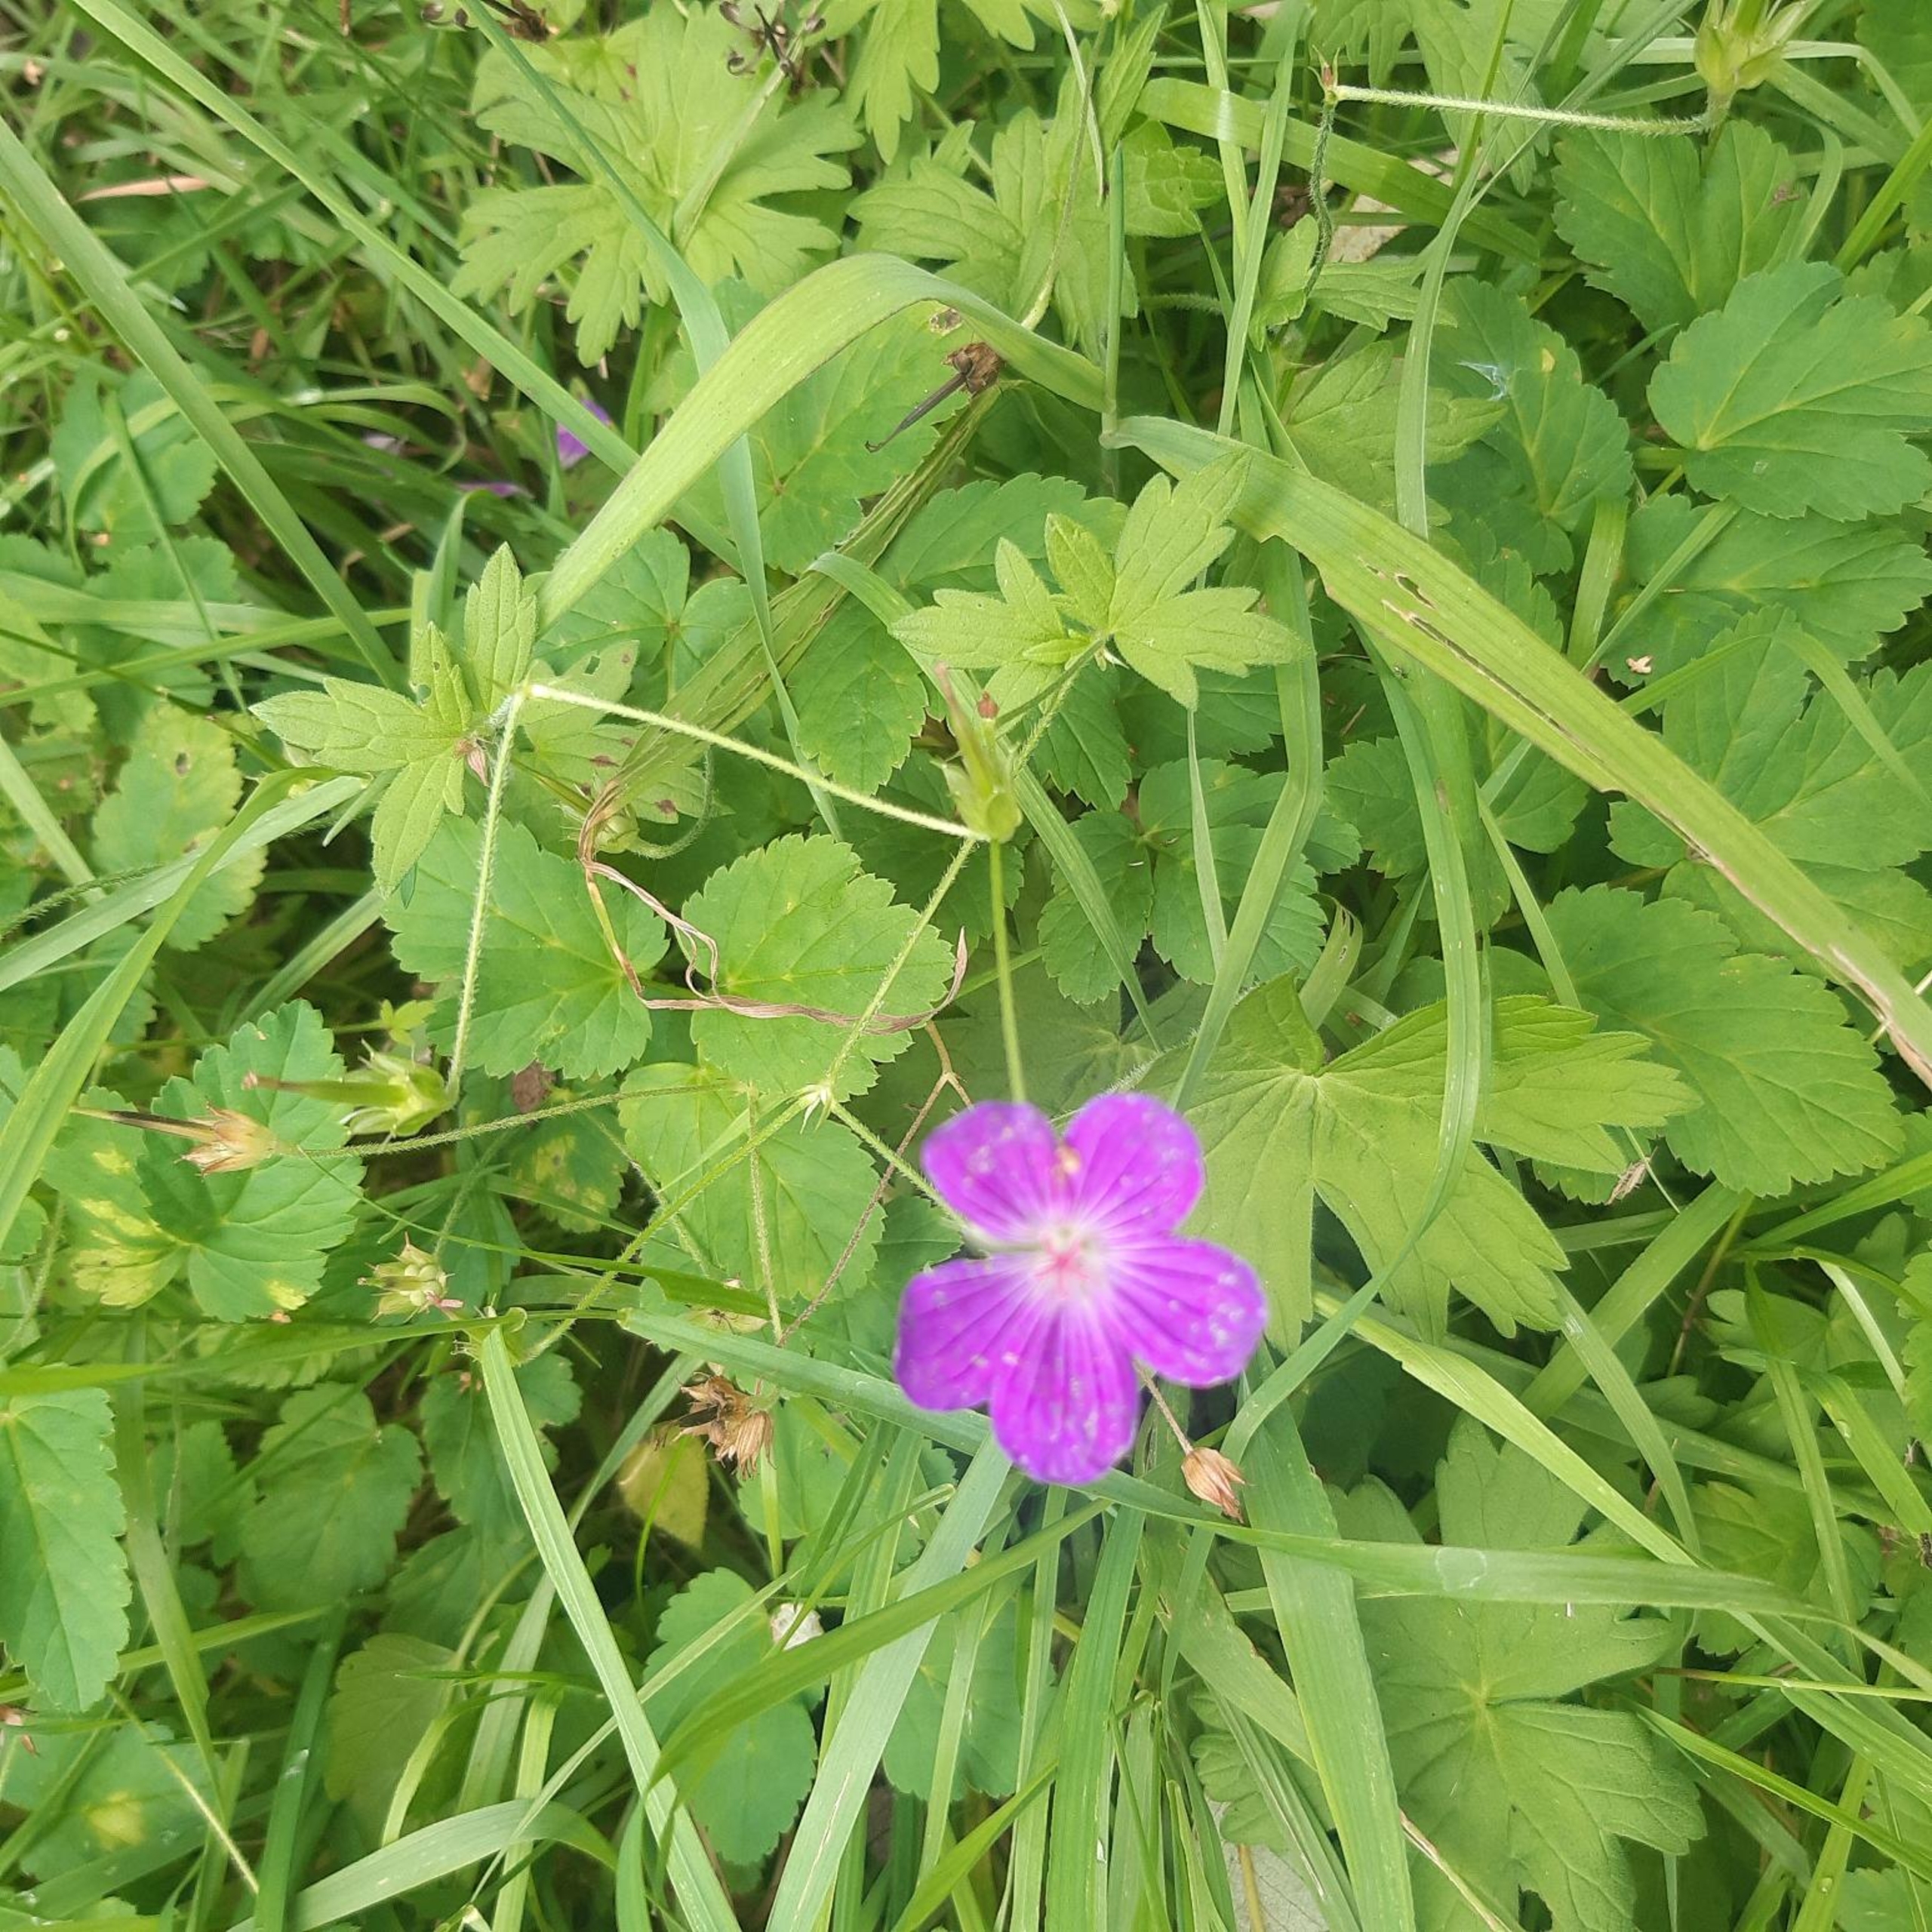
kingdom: Plantae
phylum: Tracheophyta
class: Magnoliopsida
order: Geraniales
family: Geraniaceae
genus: Geranium
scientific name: Geranium palustre
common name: Kær-storkenæb
